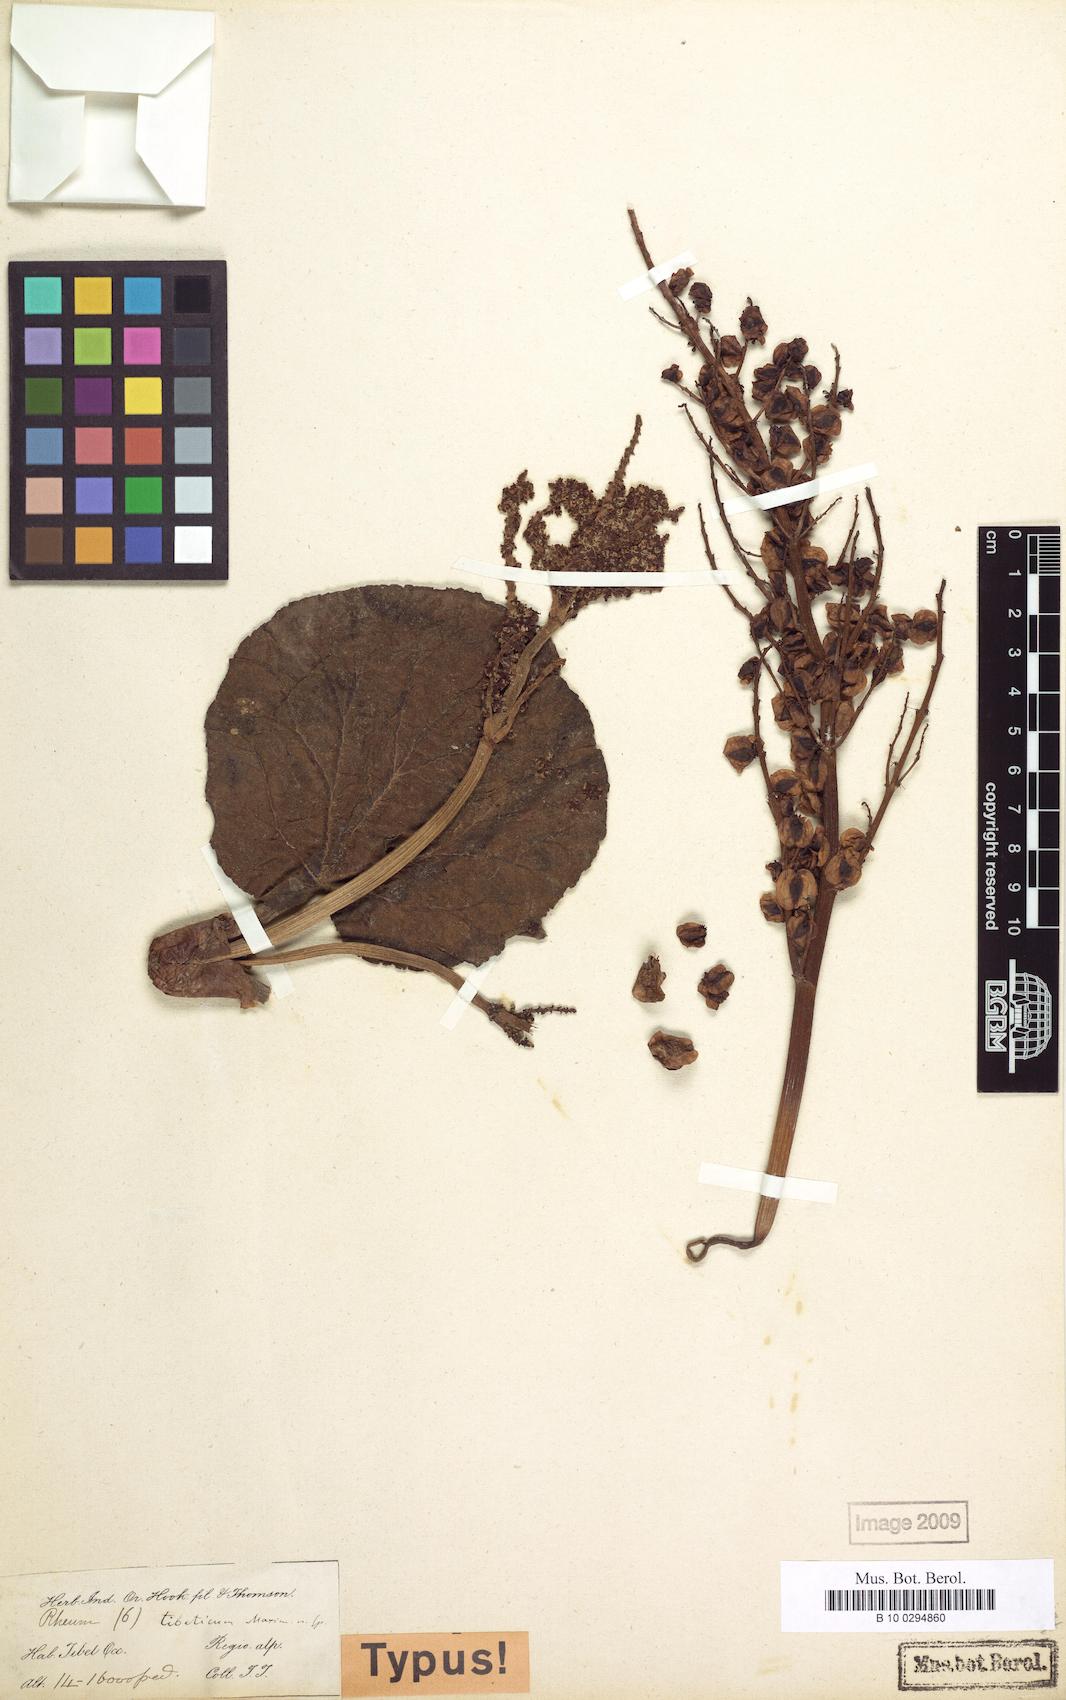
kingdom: Plantae
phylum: Tracheophyta
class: Magnoliopsida
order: Caryophyllales
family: Polygonaceae
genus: Rheum
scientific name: Rheum tibeticum
